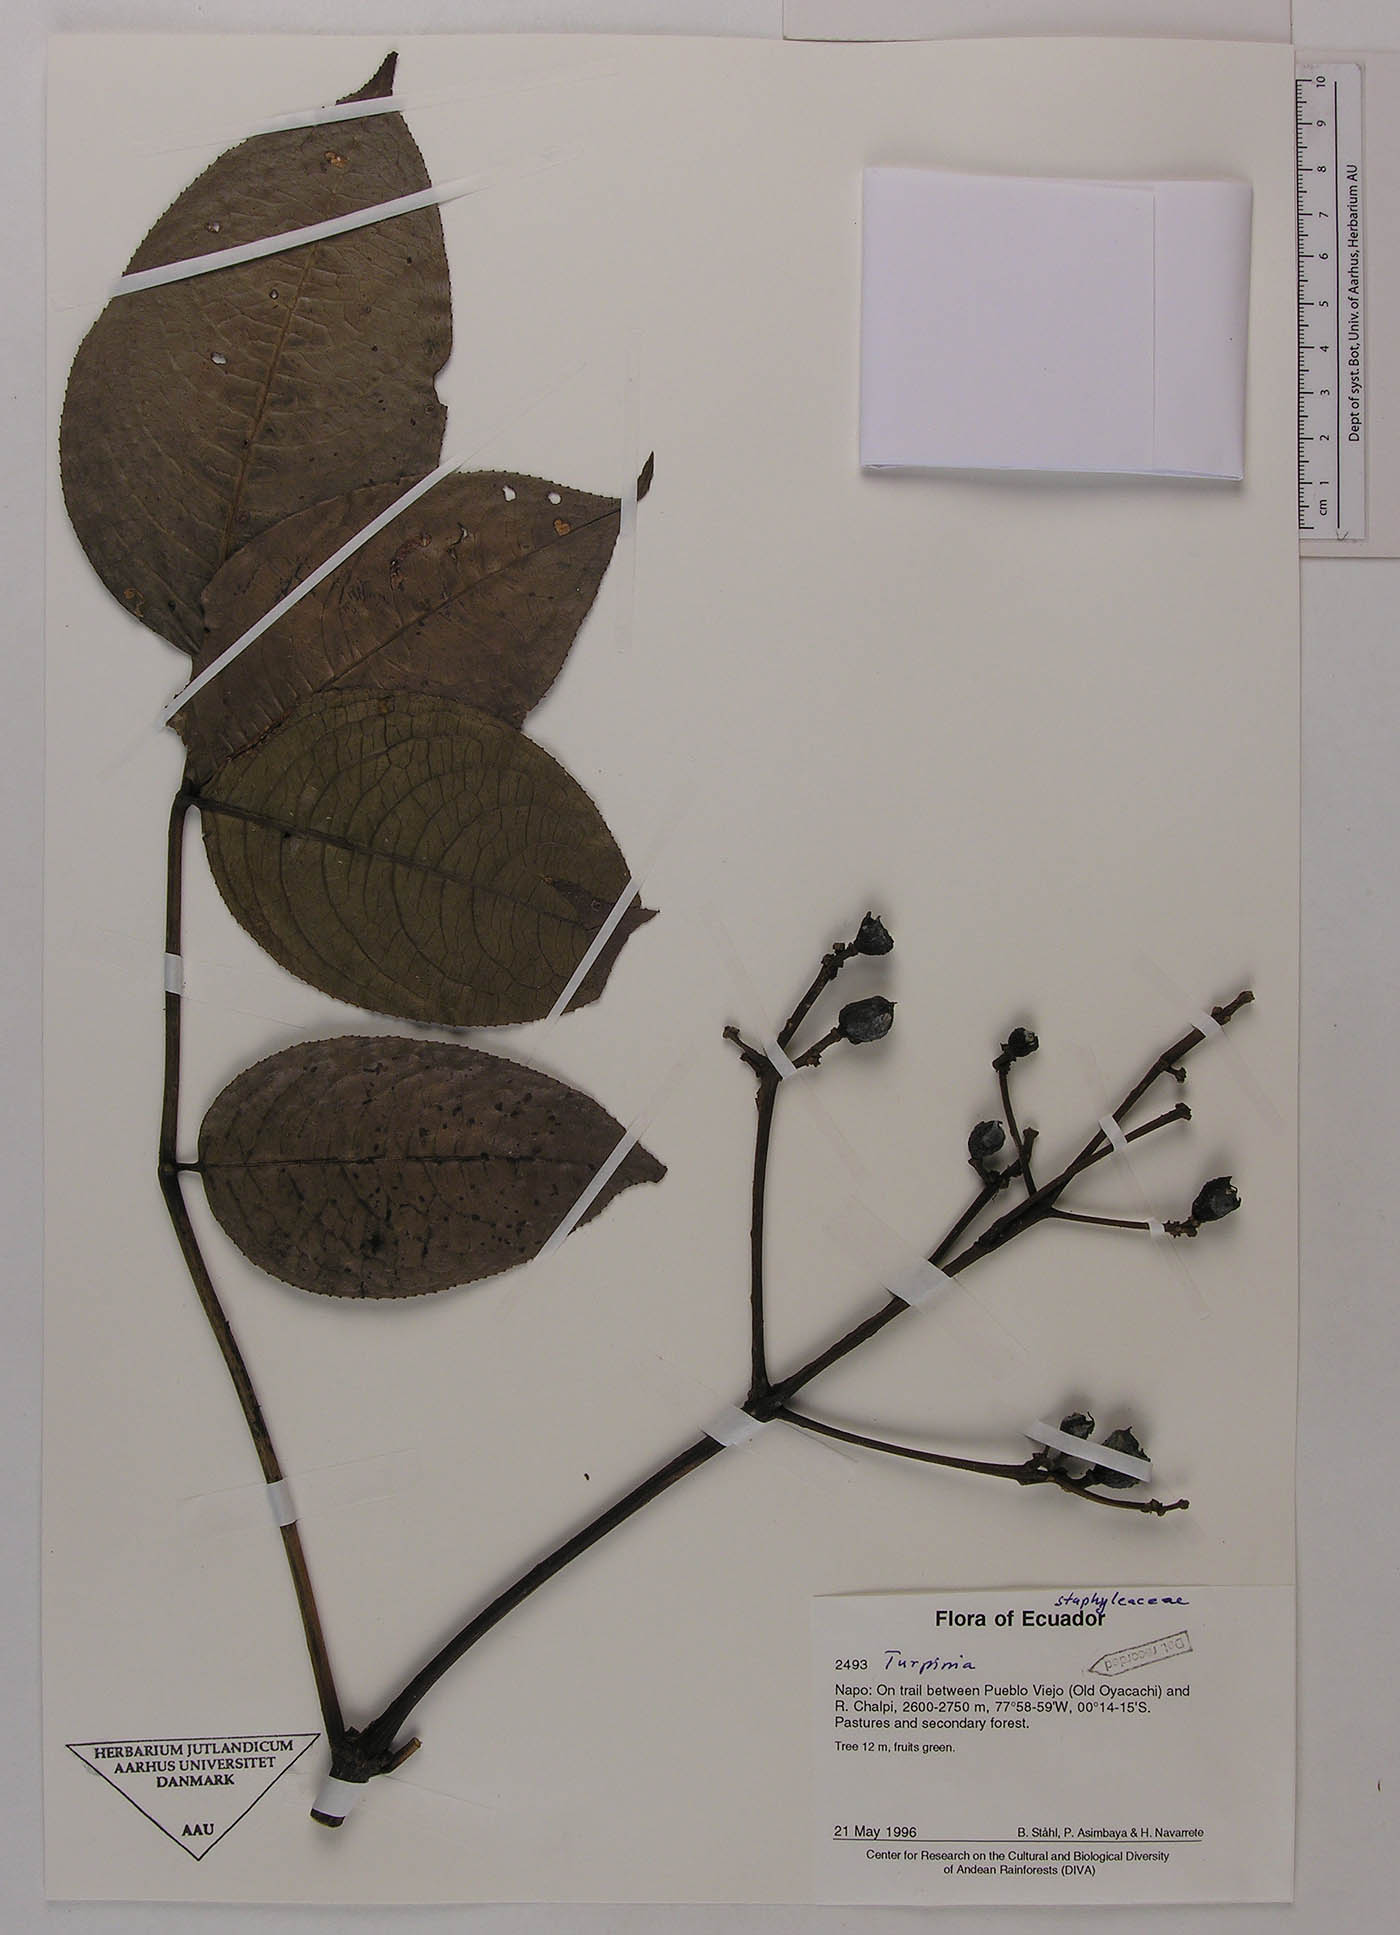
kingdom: Plantae
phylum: Tracheophyta
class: Magnoliopsida
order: Crossosomatales
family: Staphyleaceae
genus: Turpinia
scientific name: Turpinia megaphylla
